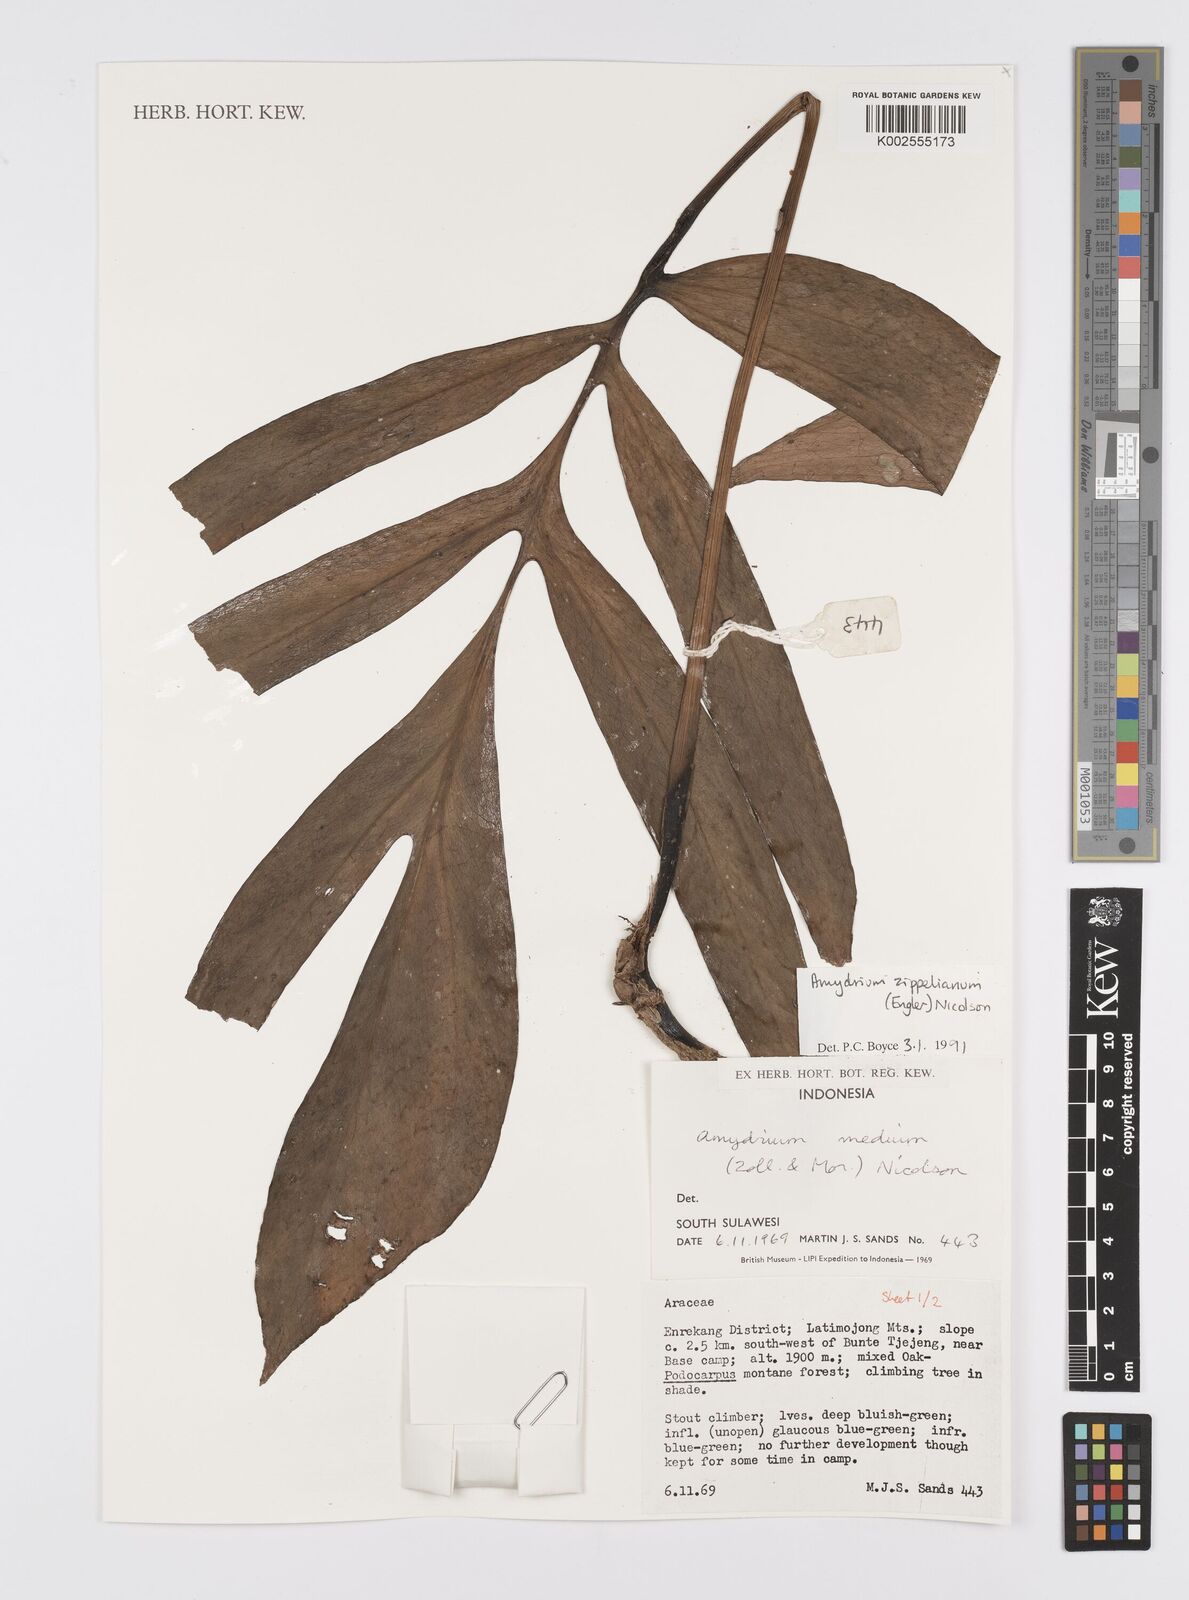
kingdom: Plantae
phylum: Tracheophyta
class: Liliopsida
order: Alismatales
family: Araceae
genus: Amydrium
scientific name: Amydrium zippelianum
